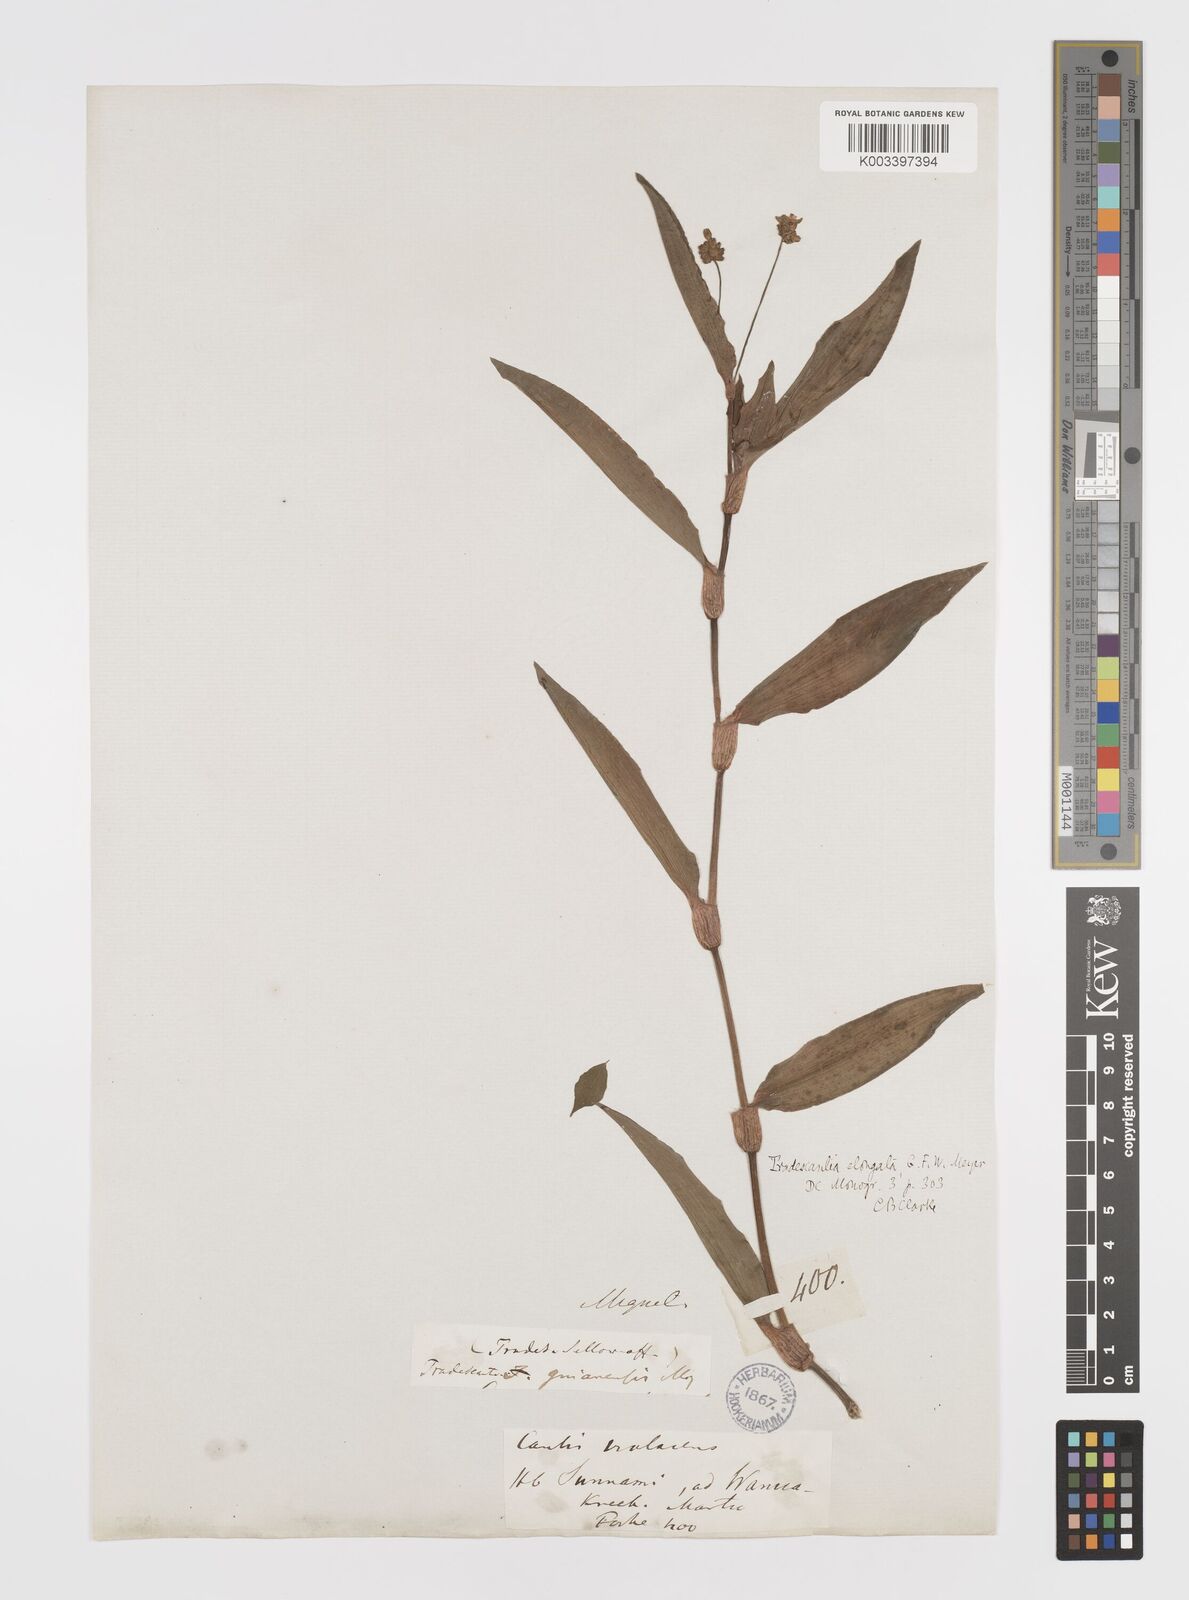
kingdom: Plantae
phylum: Tracheophyta
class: Liliopsida
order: Commelinales
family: Commelinaceae
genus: Callisia
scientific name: Callisia serrulata
